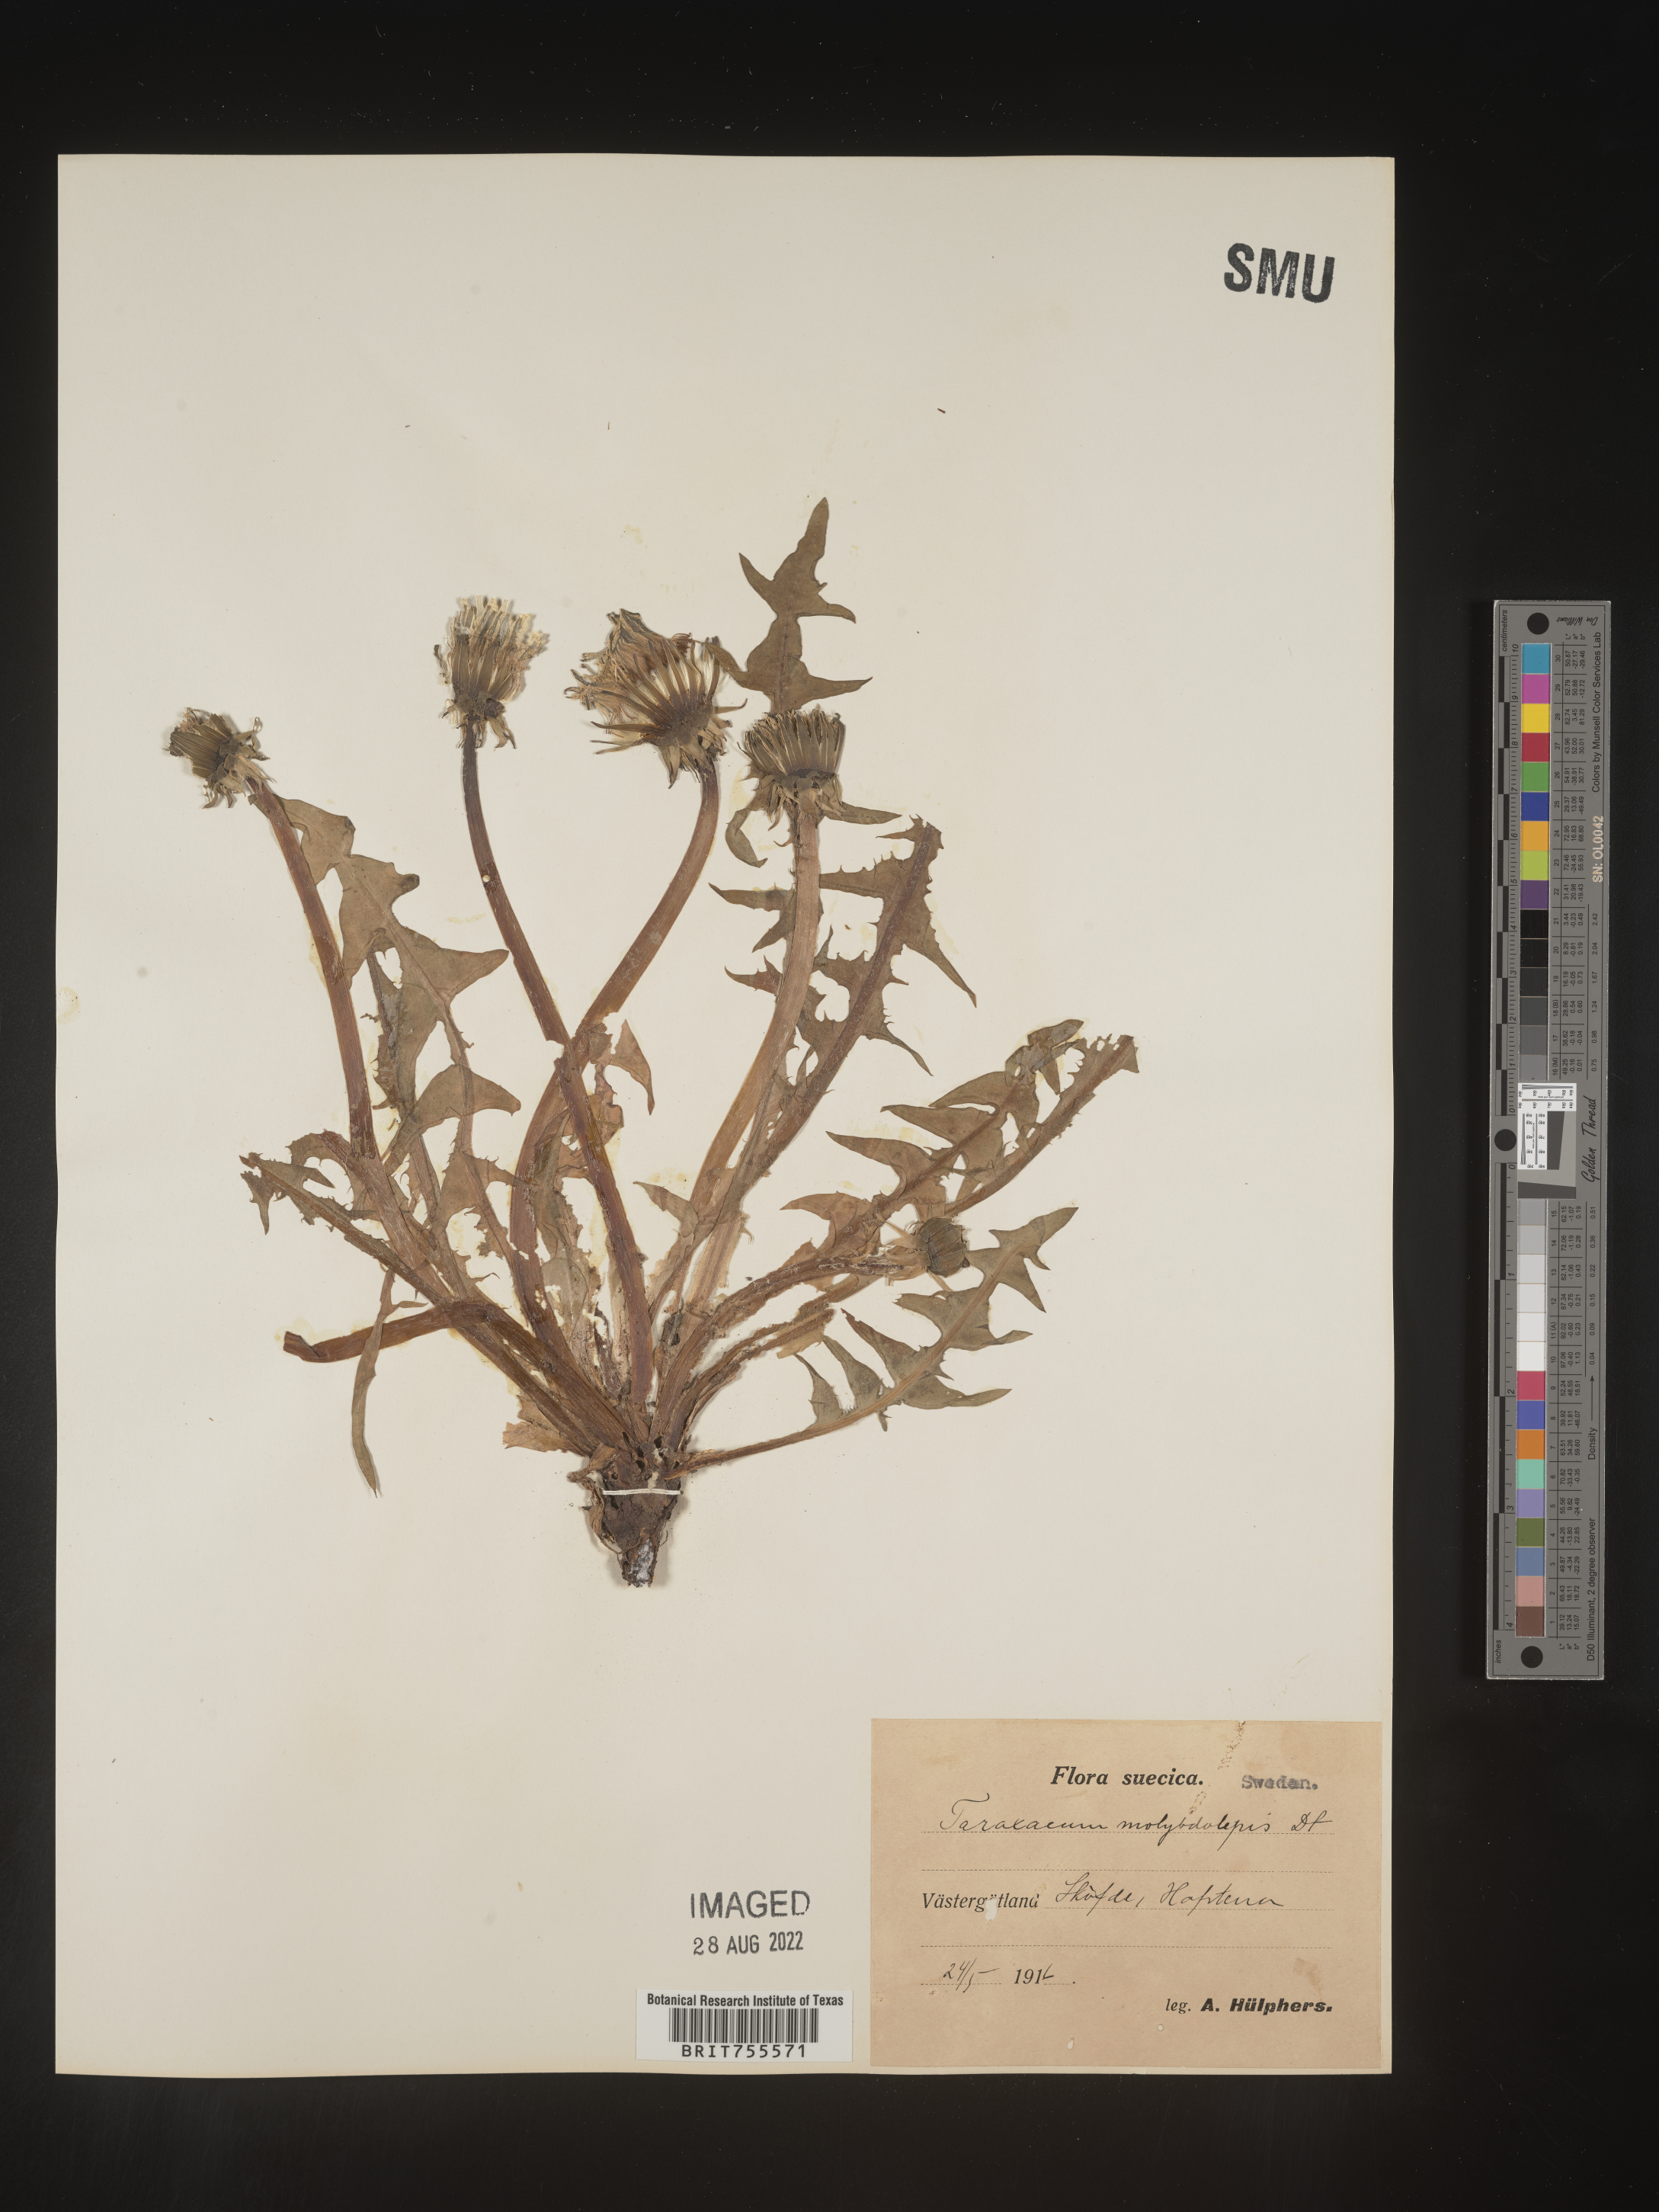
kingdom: Plantae
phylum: Tracheophyta
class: Magnoliopsida
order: Asterales
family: Asteraceae
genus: Taraxacum
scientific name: Taraxacum
